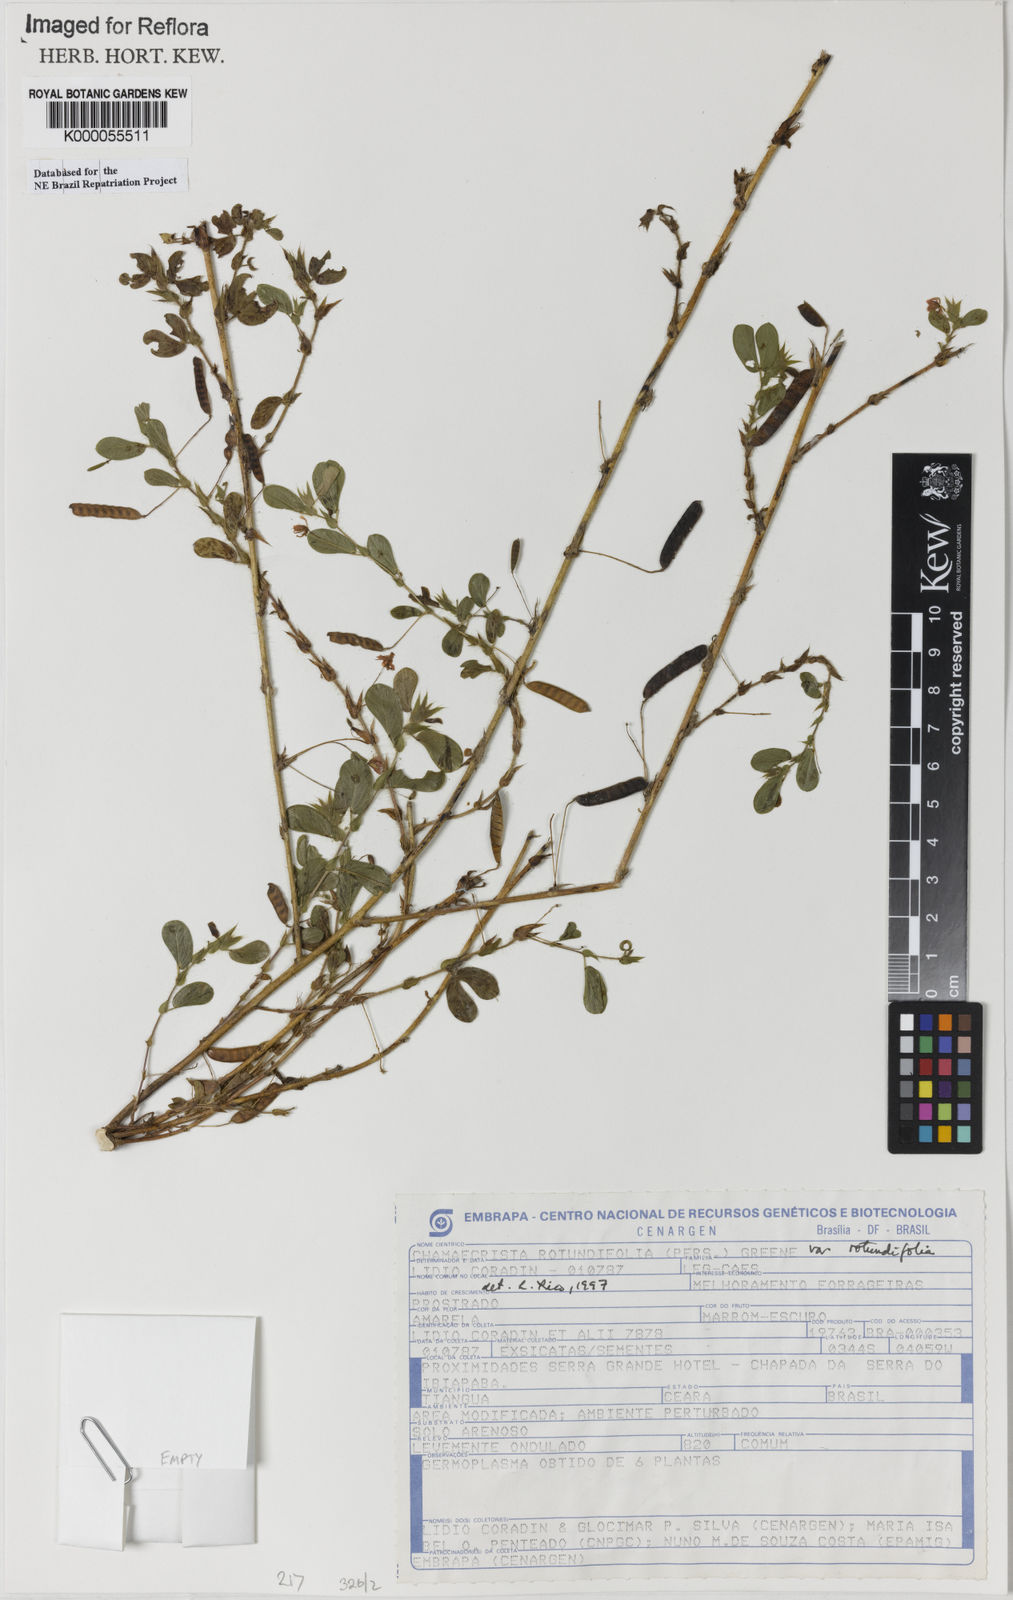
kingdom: Plantae
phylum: Tracheophyta
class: Magnoliopsida
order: Fabales
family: Fabaceae
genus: Chamaecrista
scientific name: Chamaecrista rotundifolia
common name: Round-leaf cassia
